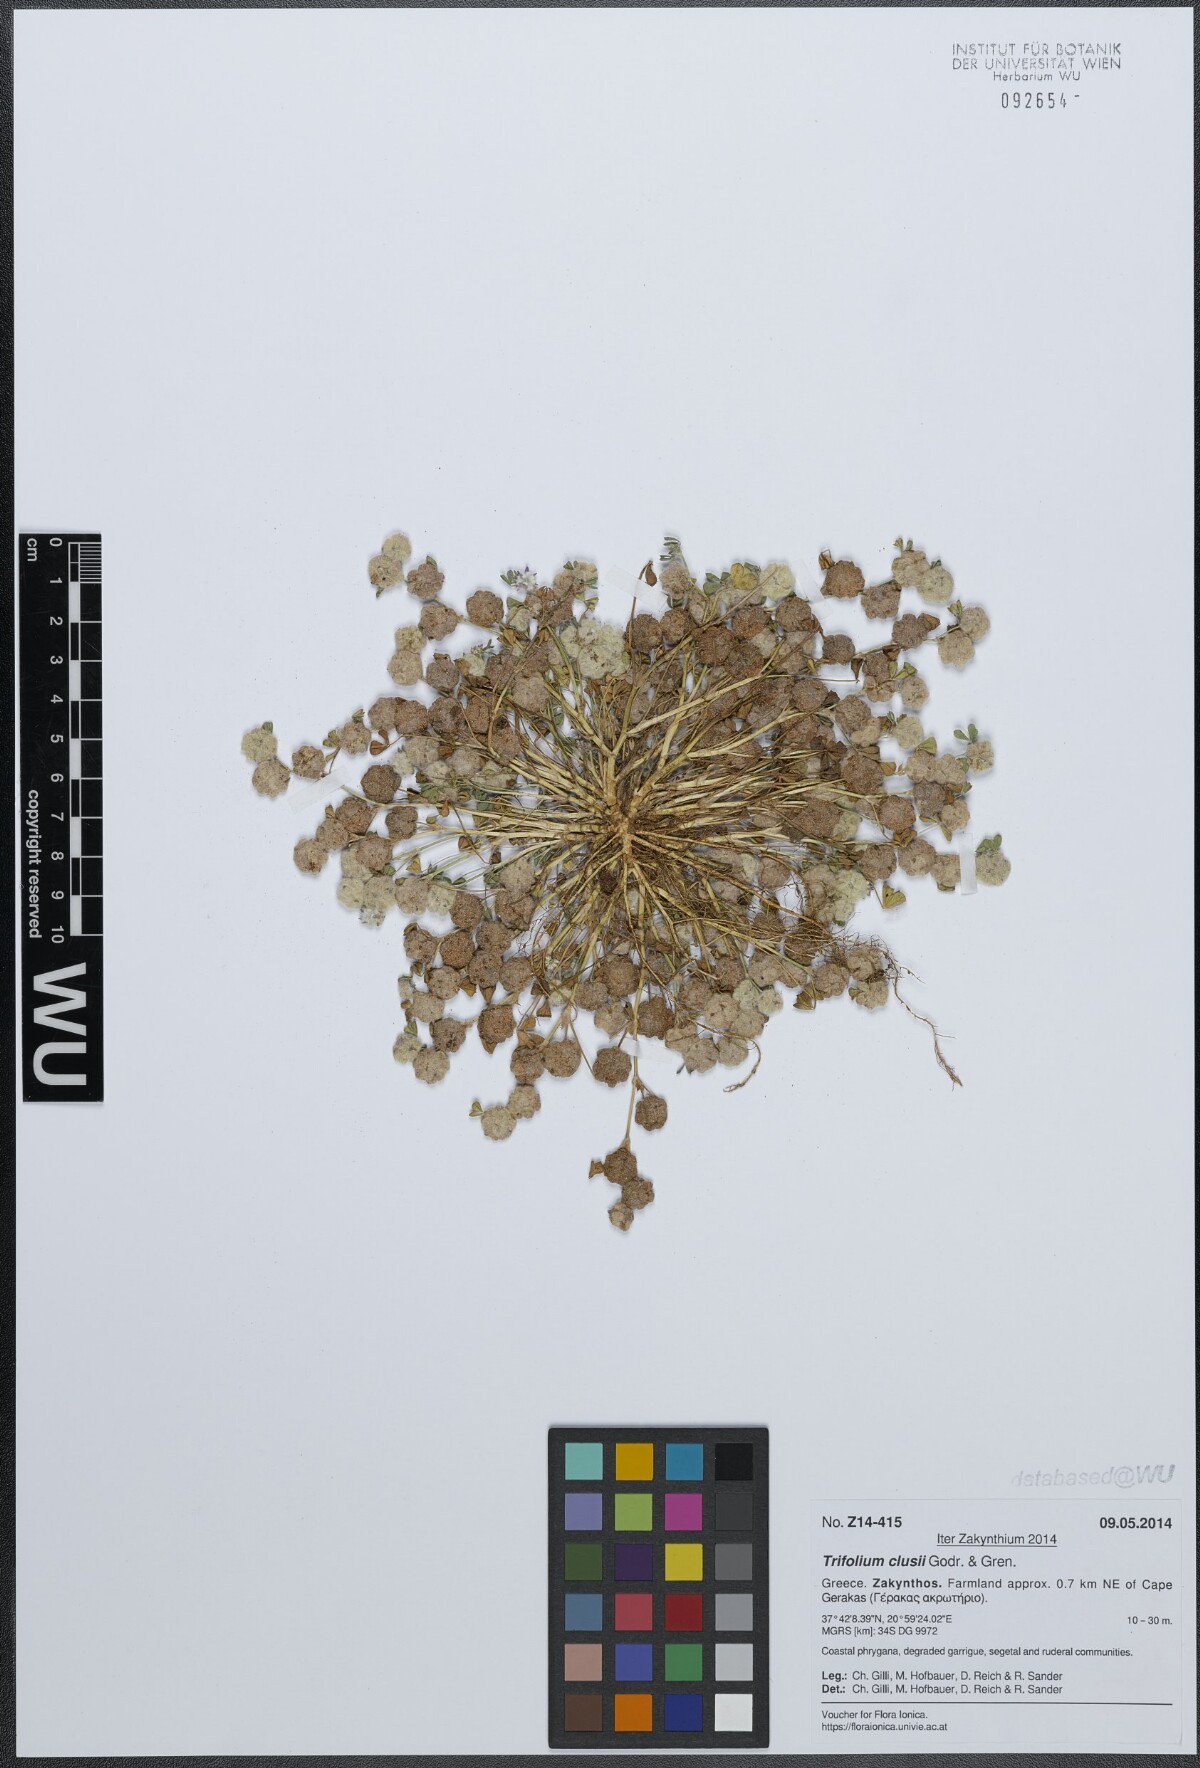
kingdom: Plantae
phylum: Tracheophyta
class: Magnoliopsida
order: Fabales
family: Fabaceae
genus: Trifolium
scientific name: Trifolium clusii
